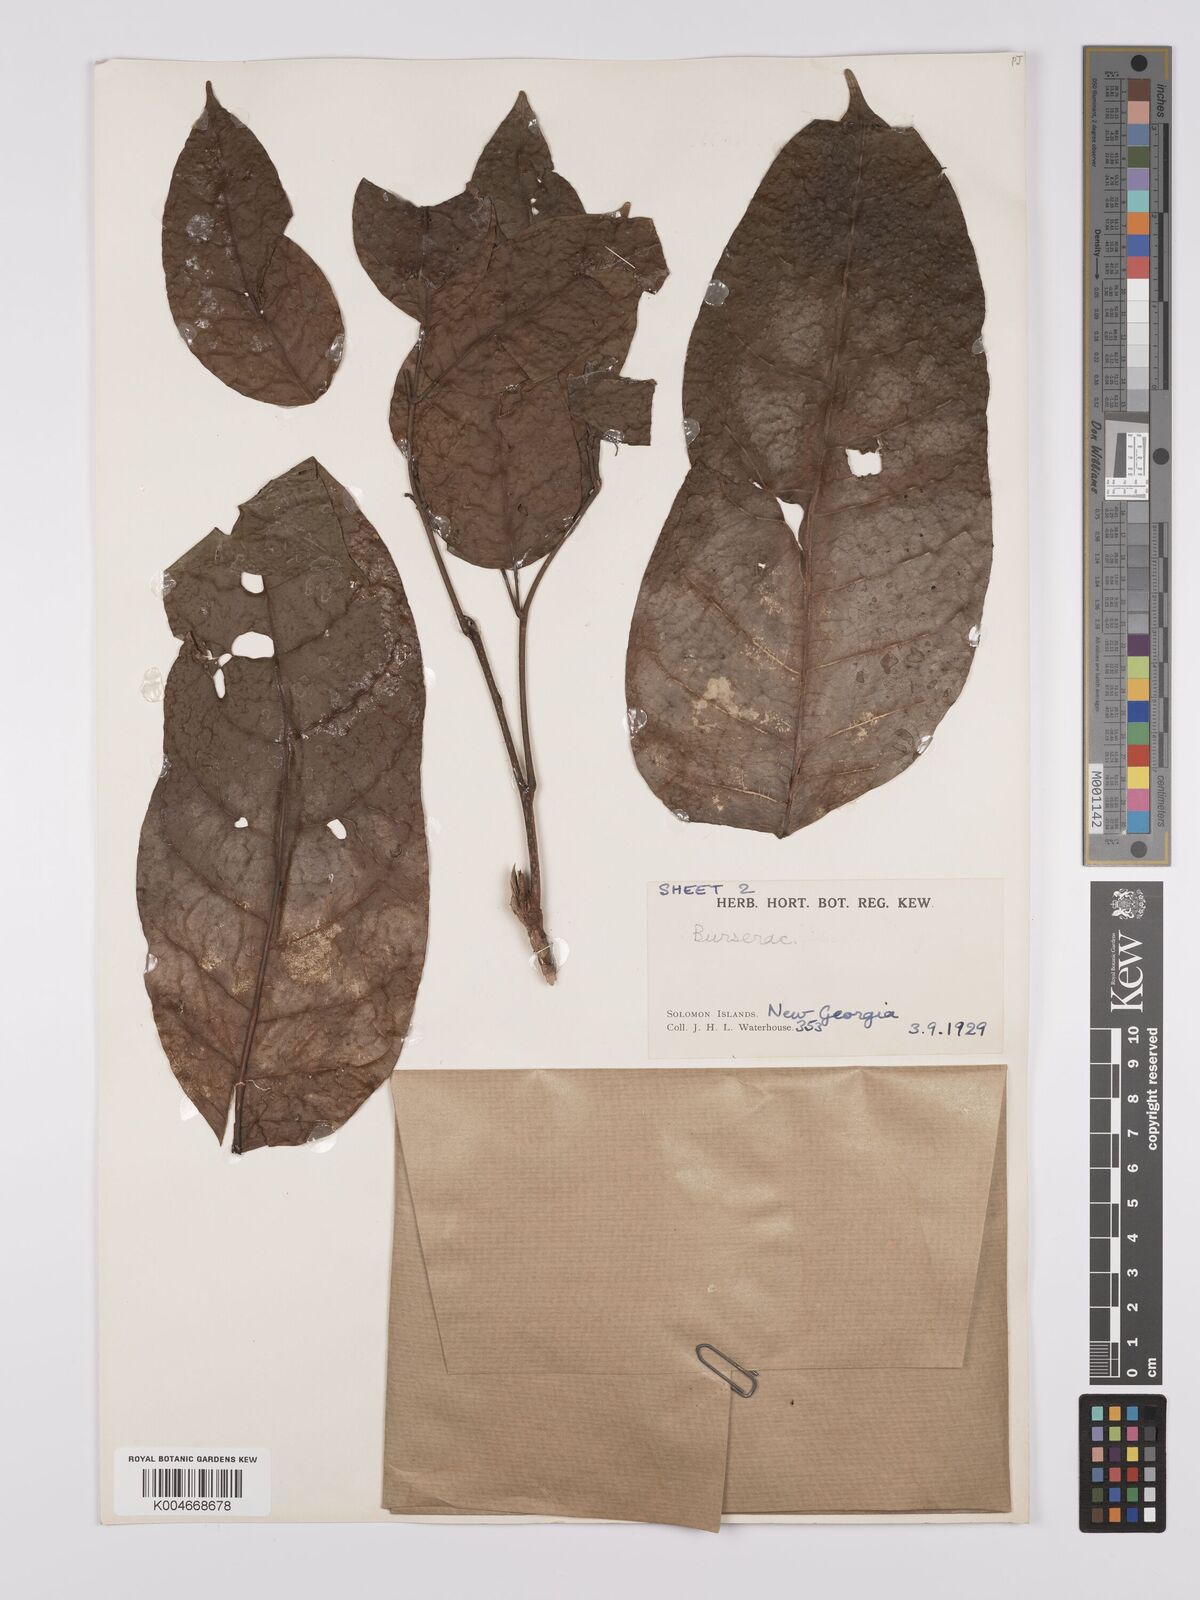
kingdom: Plantae
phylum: Tracheophyta
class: Magnoliopsida
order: Sapindales
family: Burseraceae
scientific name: Burseraceae
